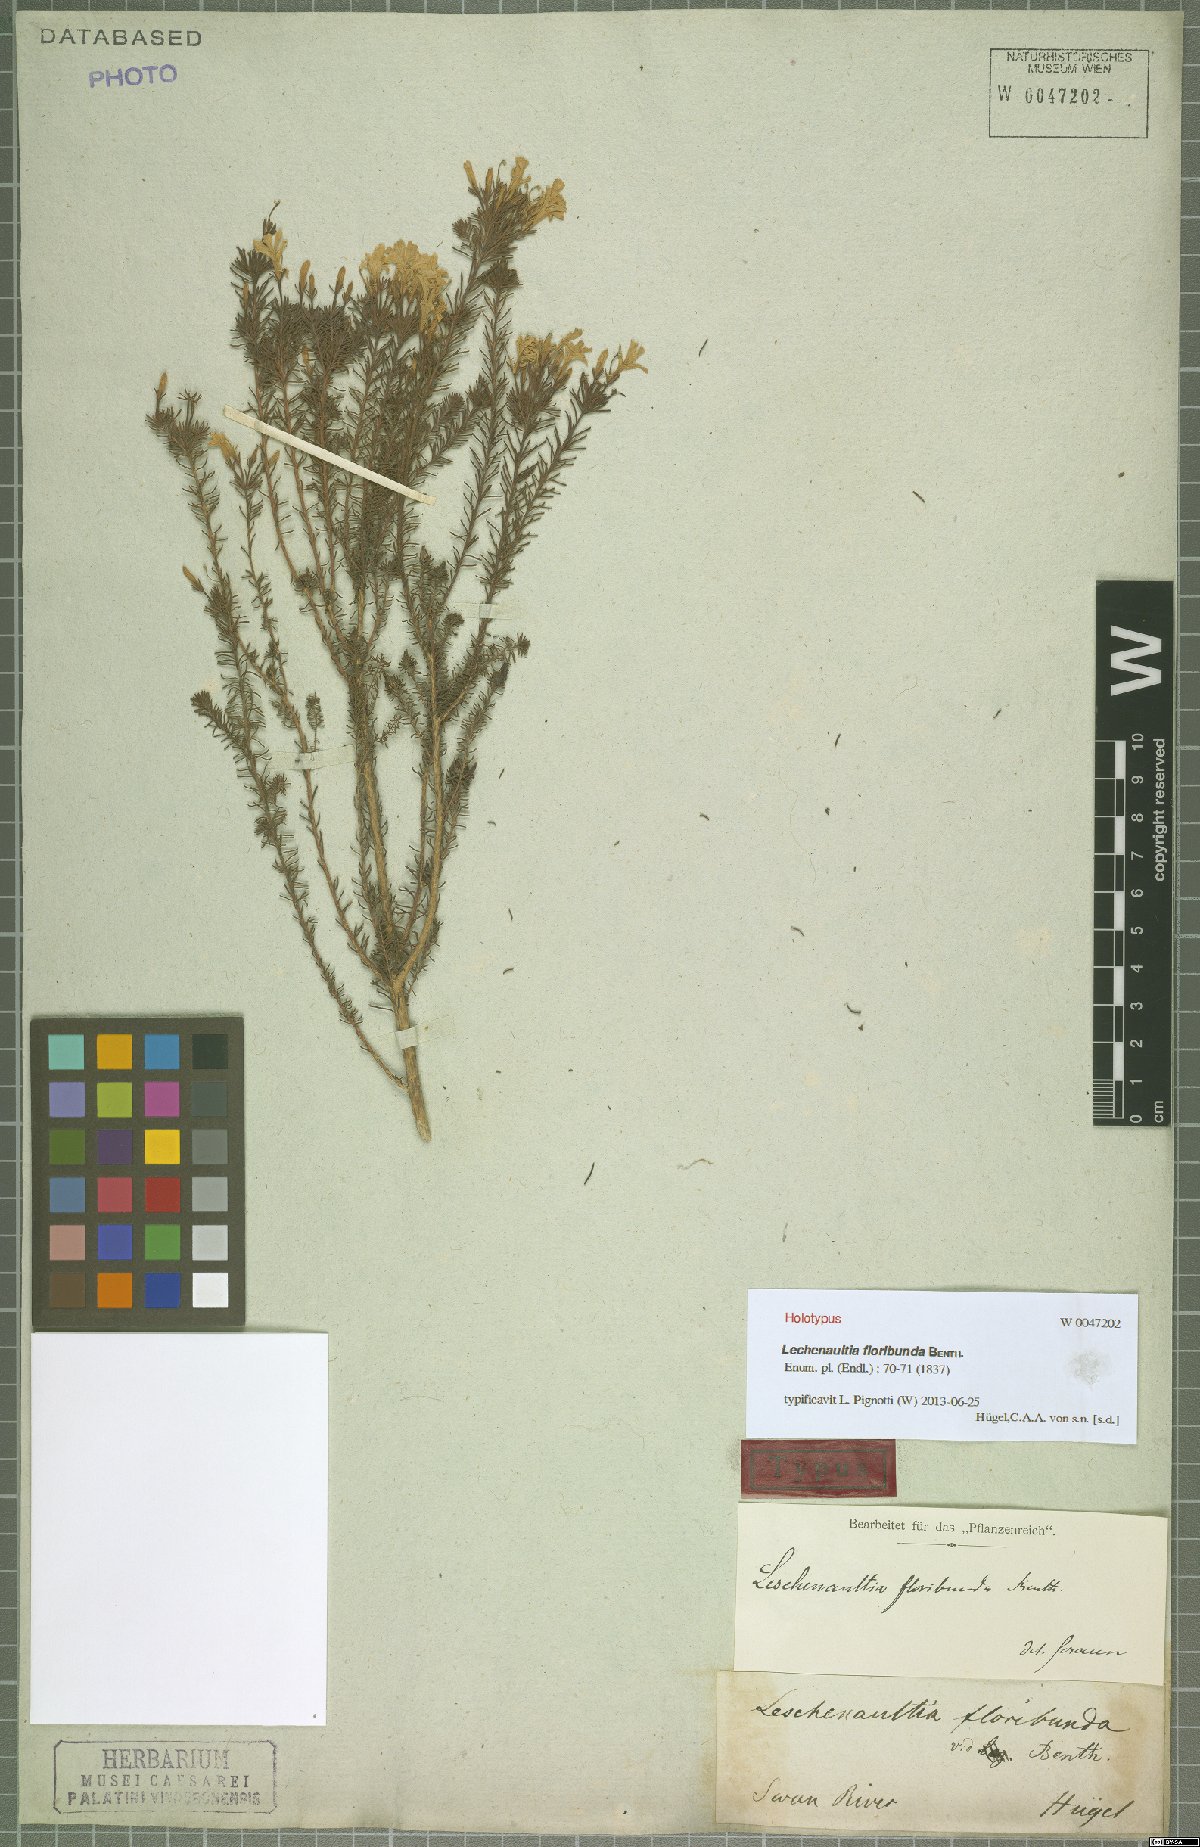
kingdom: Plantae
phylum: Tracheophyta
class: Magnoliopsida
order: Asterales
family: Goodeniaceae
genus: Lechenaultia
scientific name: Lechenaultia floribunda
